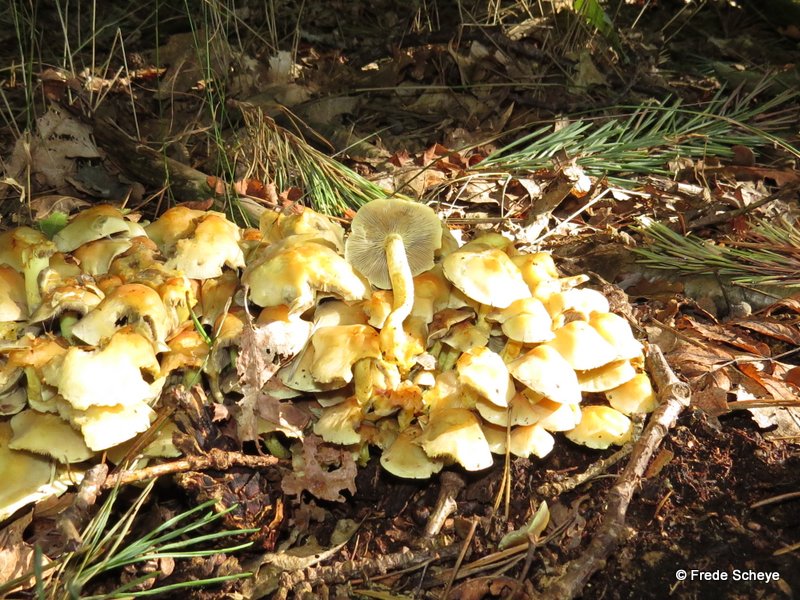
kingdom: Fungi
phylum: Basidiomycota
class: Agaricomycetes
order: Agaricales
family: Strophariaceae
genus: Hypholoma
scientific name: Hypholoma fasciculare
